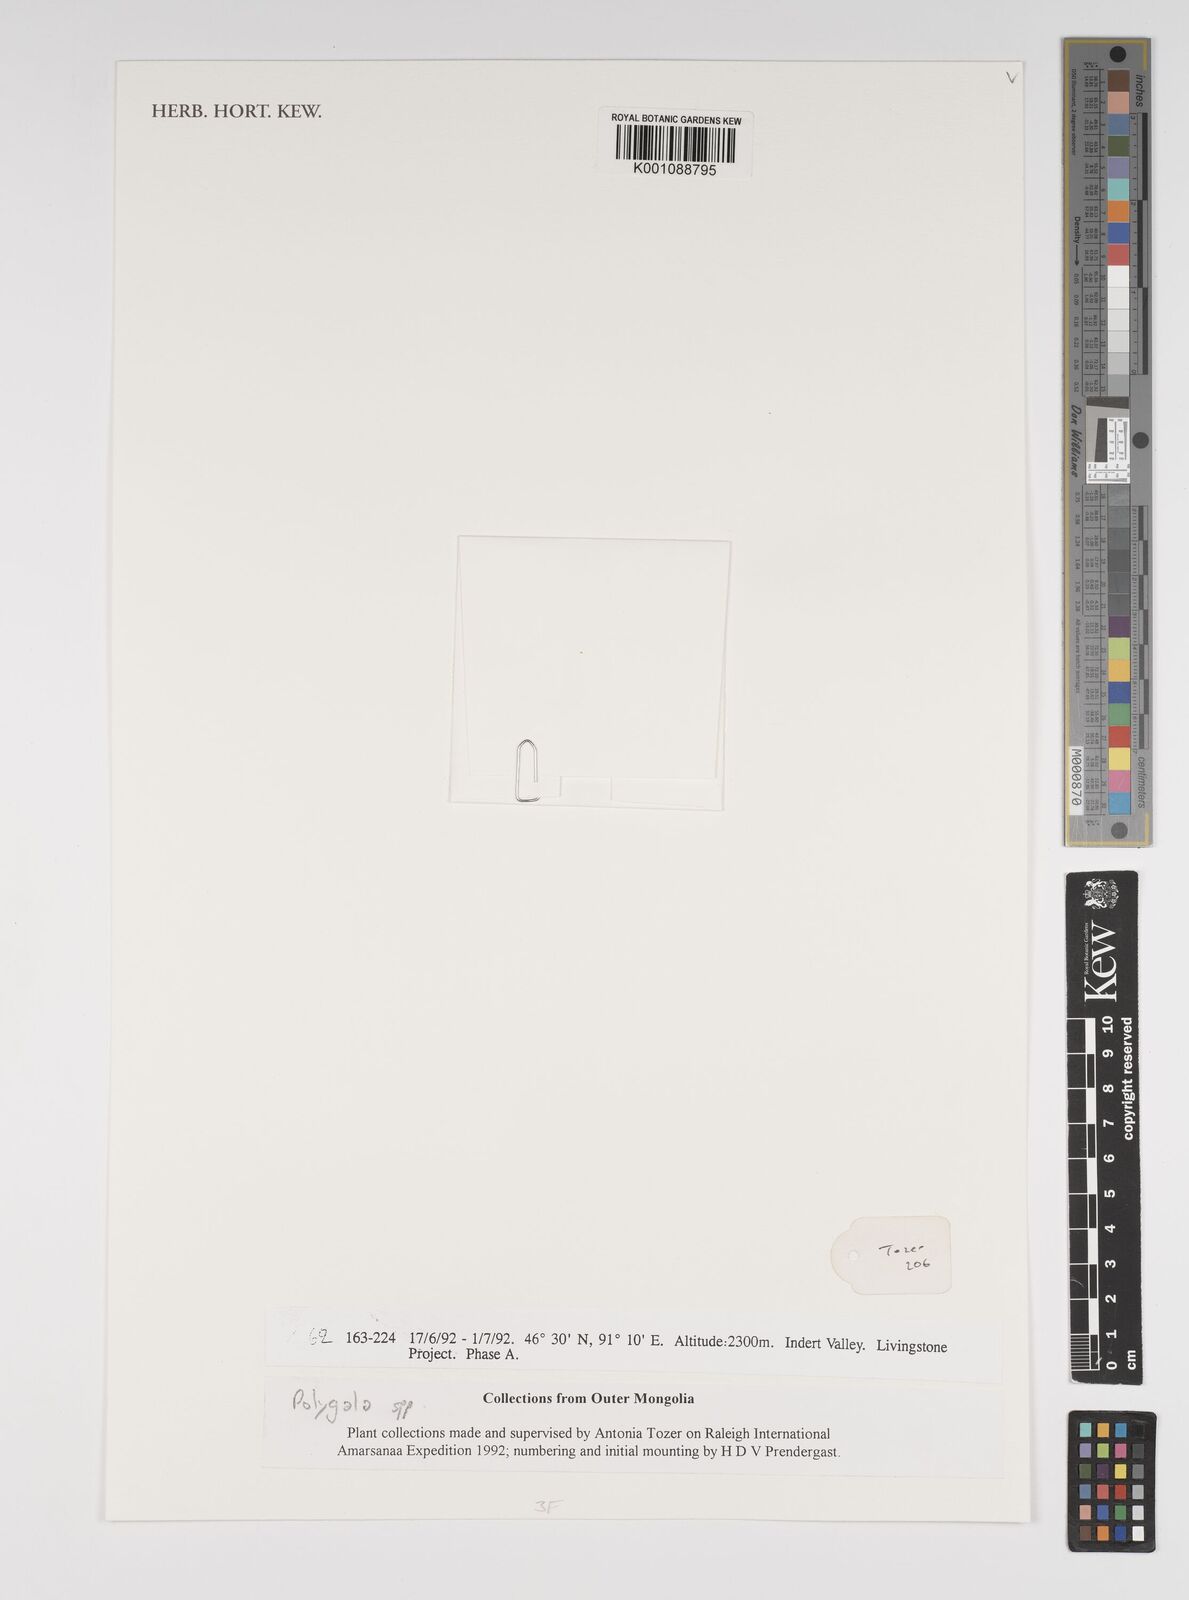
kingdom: Plantae
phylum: Tracheophyta
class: Magnoliopsida
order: Fabales
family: Polygalaceae
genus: Polygala
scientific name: Polygala
